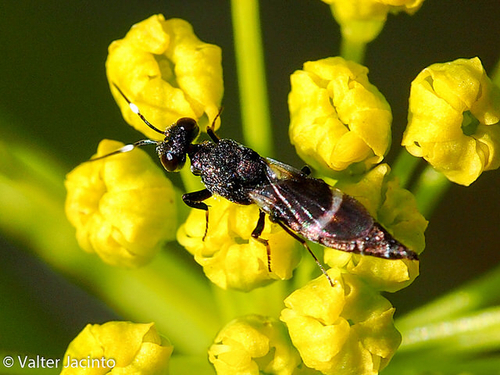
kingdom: Animalia
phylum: Arthropoda
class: Insecta
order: Hymenoptera
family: Eupelmidae
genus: Pentacladia
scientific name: Pentacladia elegans
